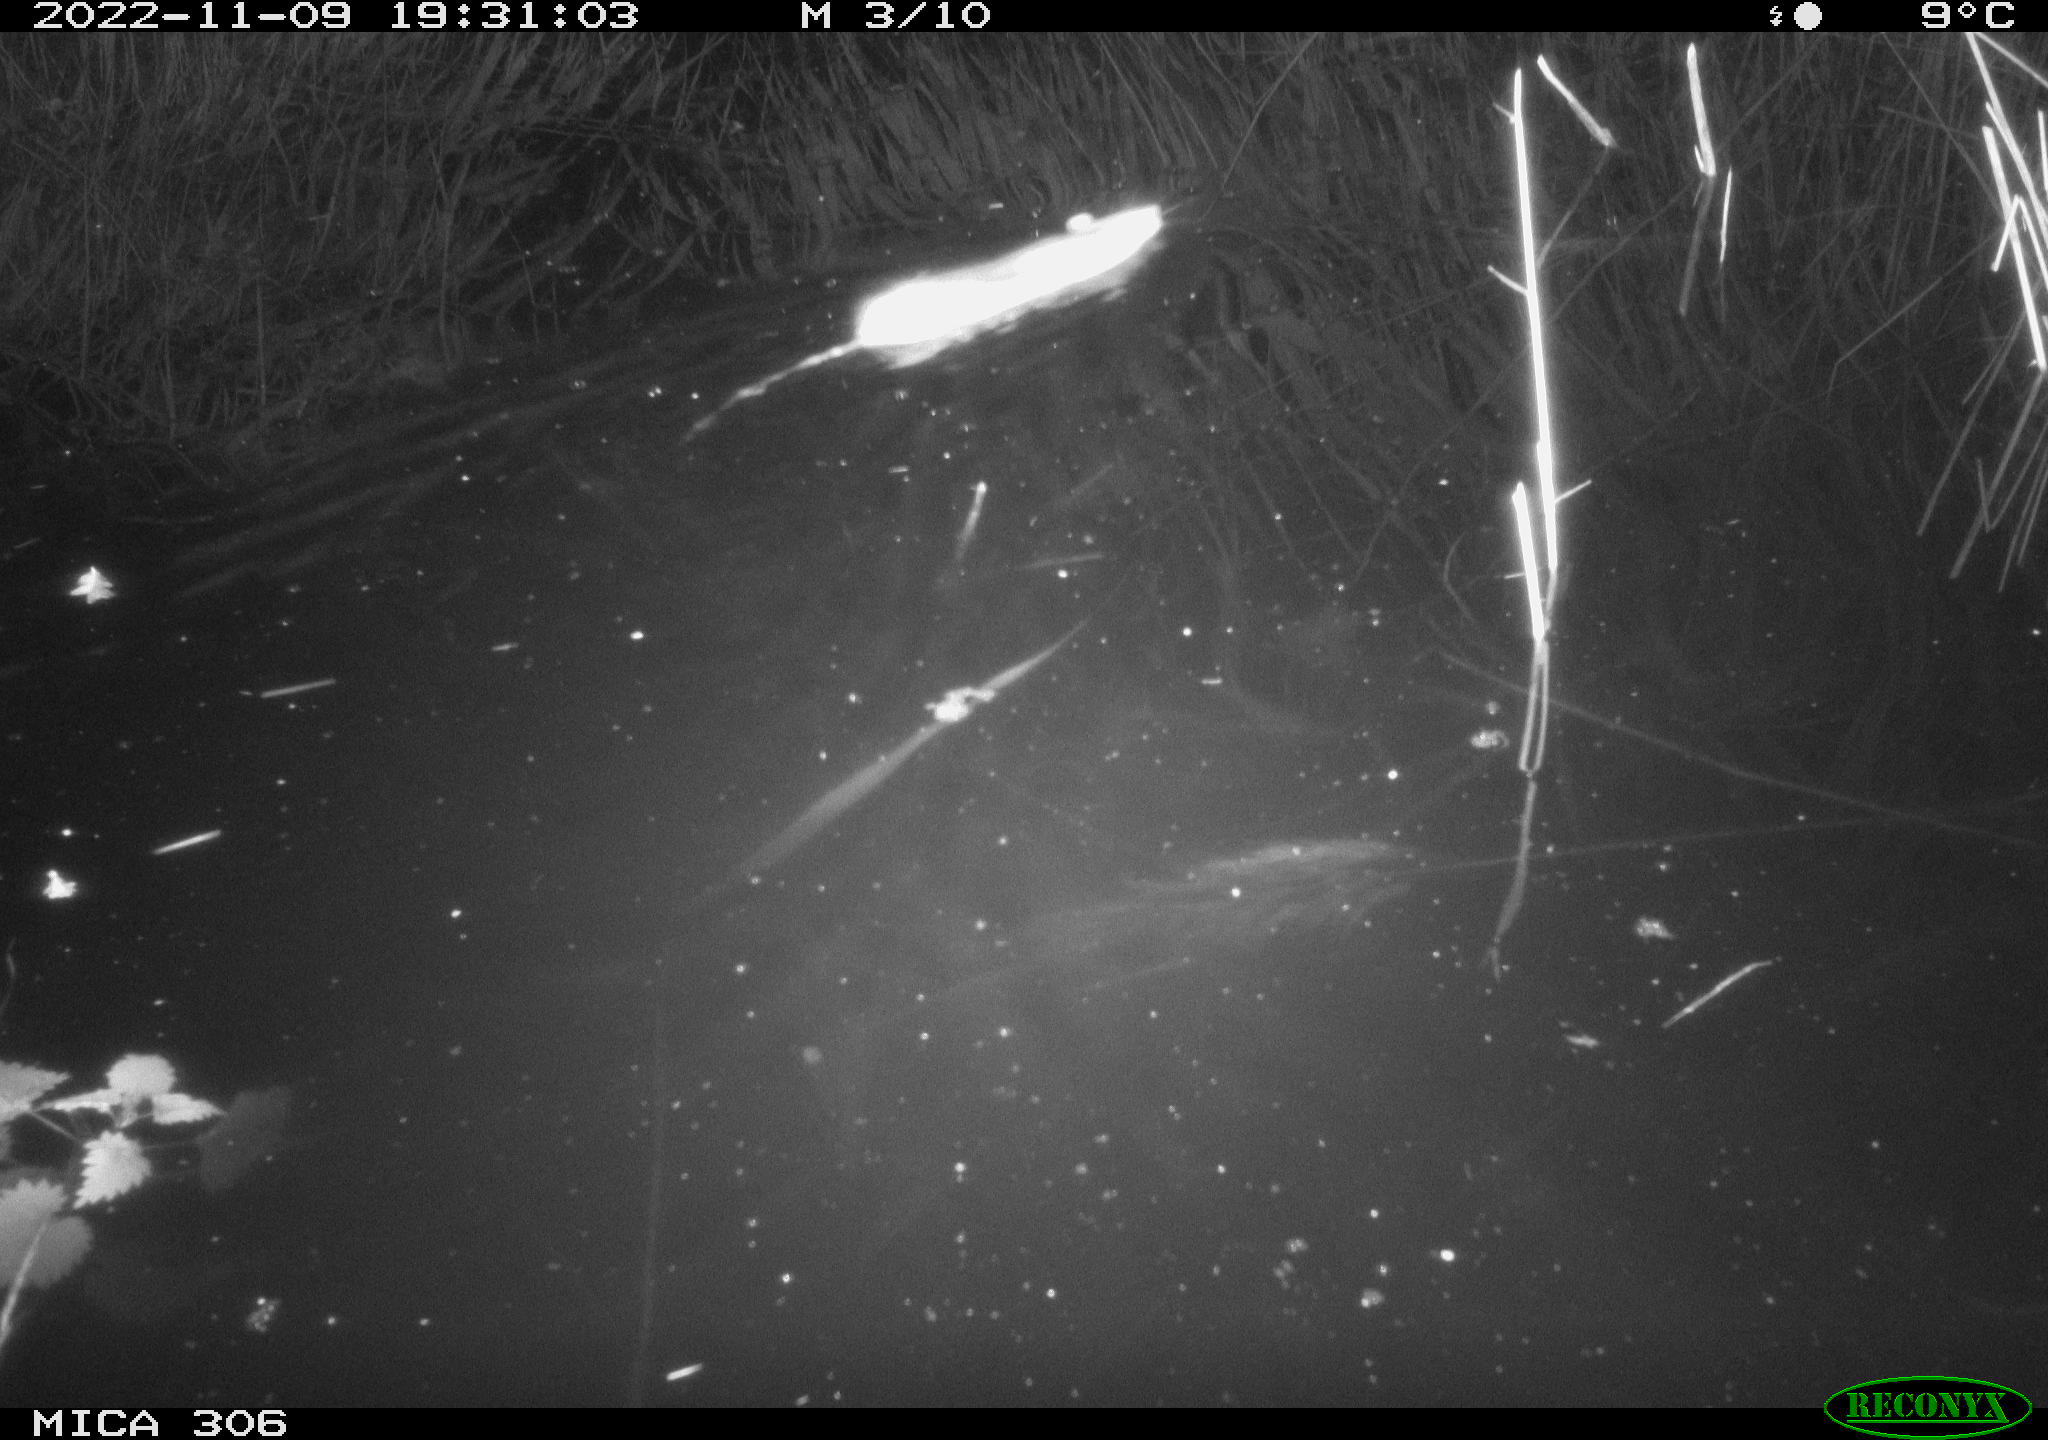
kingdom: Animalia
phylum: Chordata
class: Mammalia
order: Rodentia
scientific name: Rodentia
